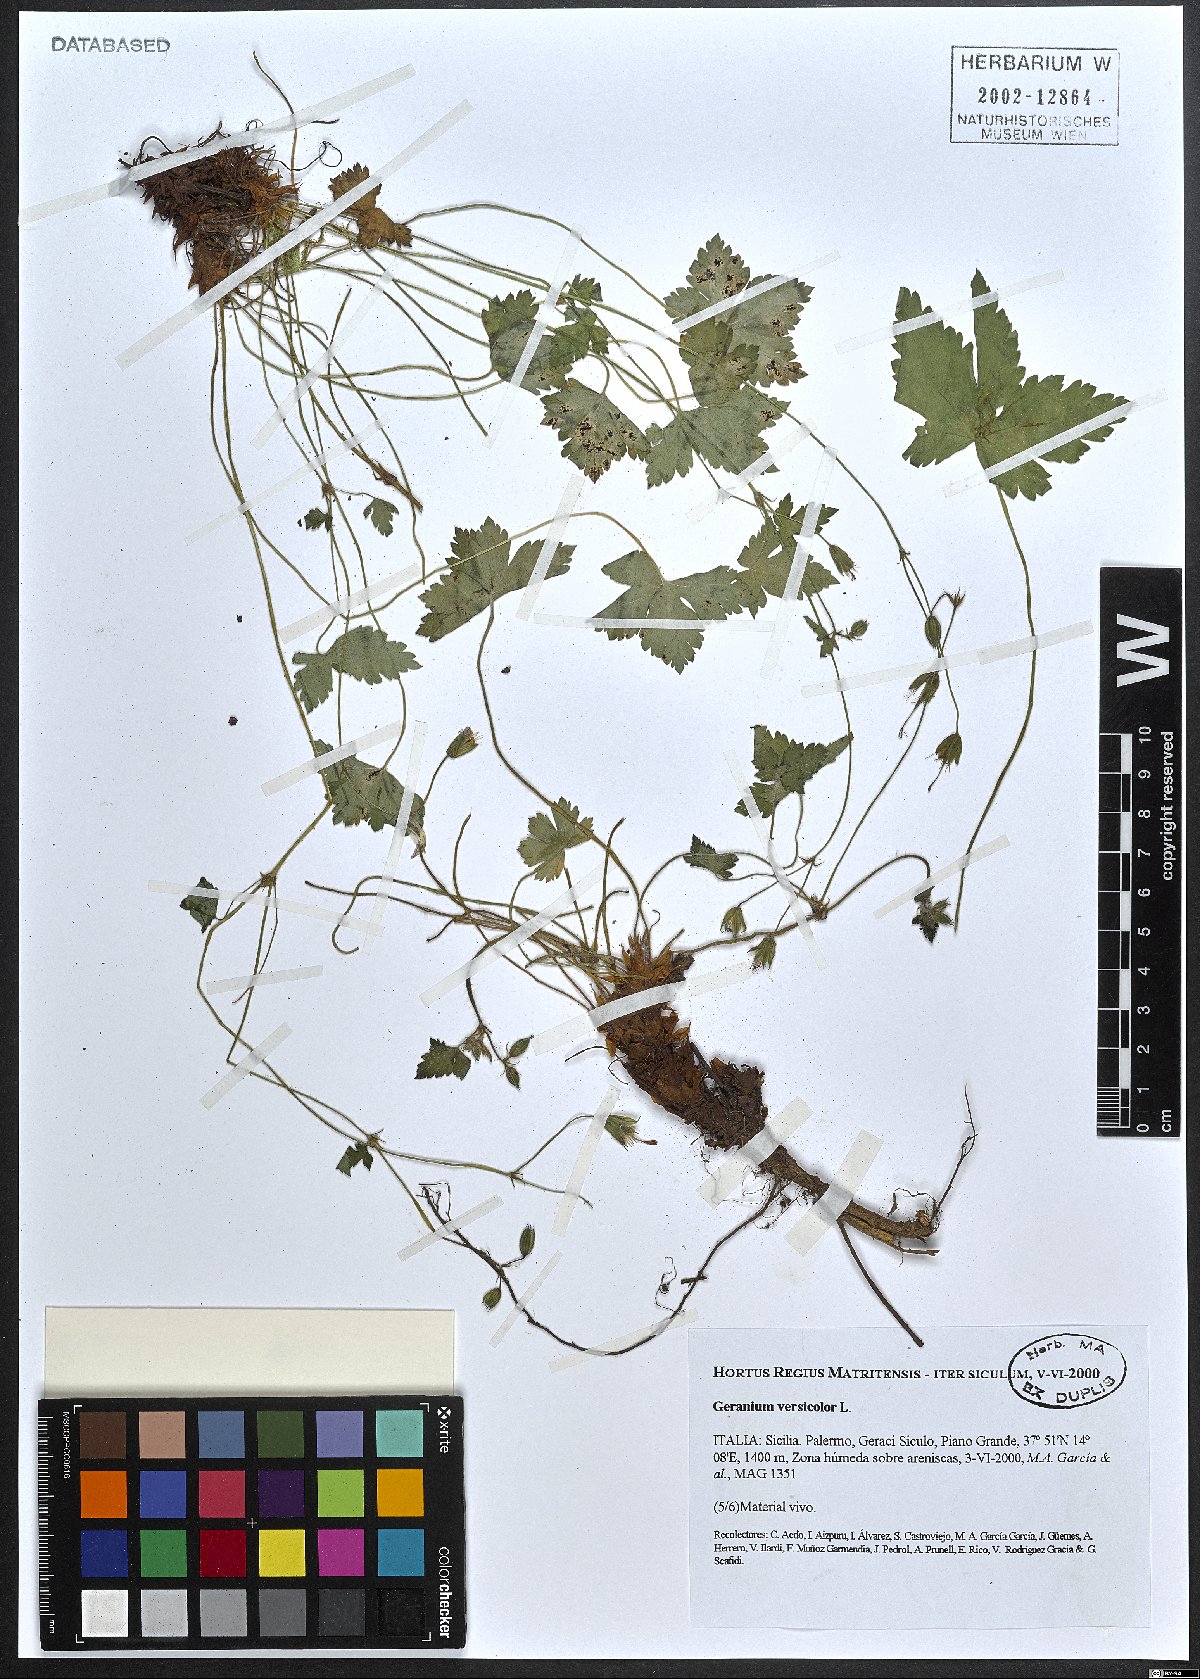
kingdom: Plantae
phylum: Tracheophyta
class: Magnoliopsida
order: Geraniales
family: Geraniaceae
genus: Geranium
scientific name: Geranium versicolor
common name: Pencilled crane's-bill
